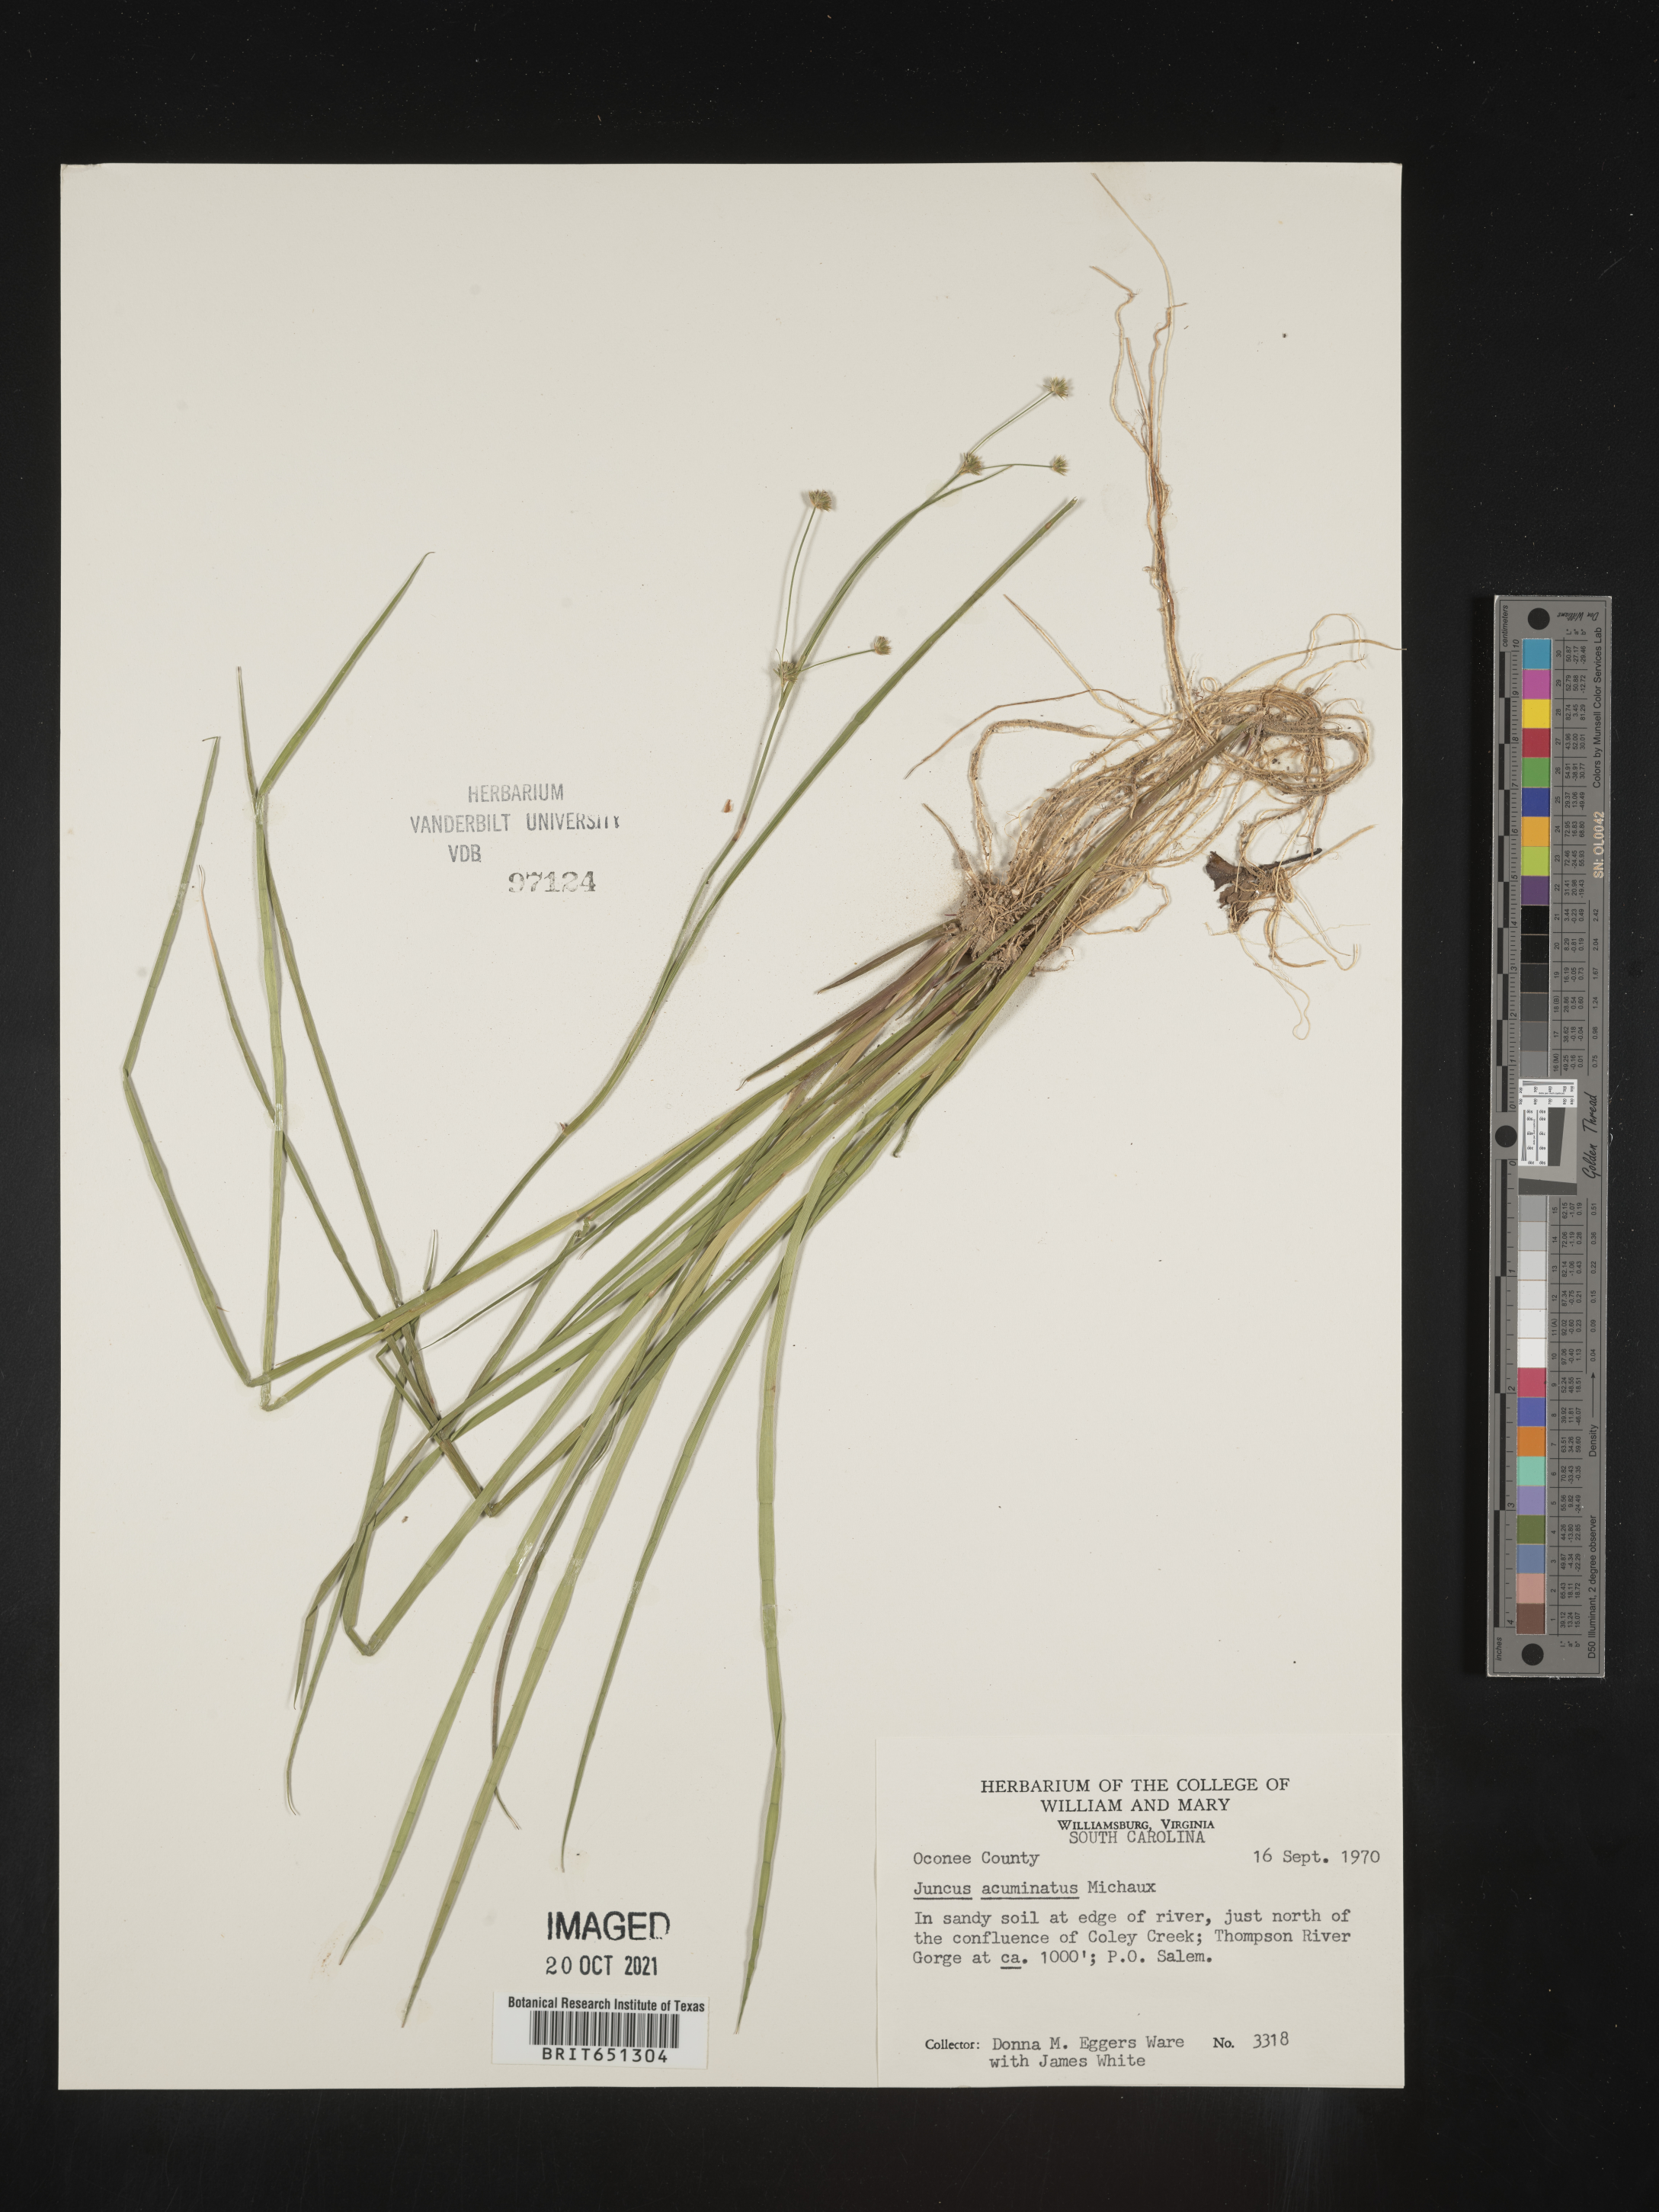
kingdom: Plantae
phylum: Tracheophyta
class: Liliopsida
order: Poales
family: Juncaceae
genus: Juncus
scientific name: Juncus acuminatus
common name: Knotty-leaved rush
